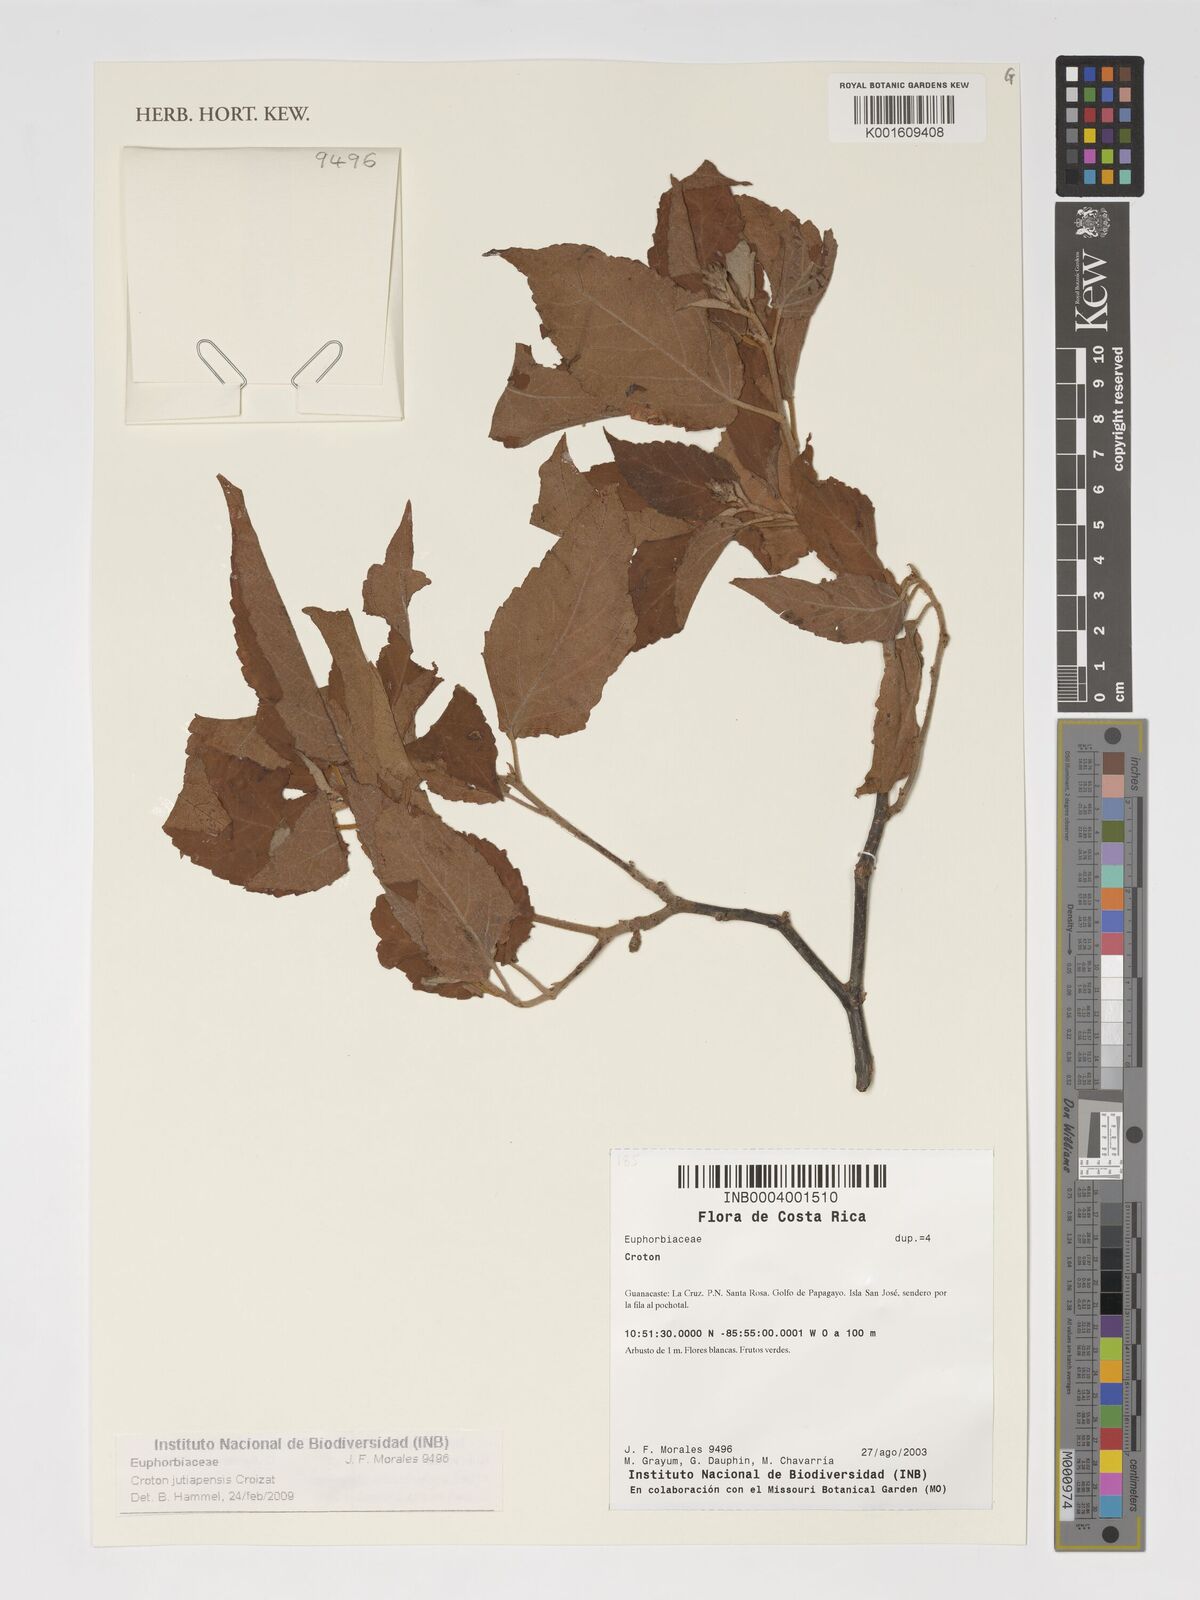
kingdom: Plantae
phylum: Tracheophyta
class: Magnoliopsida
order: Malpighiales
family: Euphorbiaceae
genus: Croton
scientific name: Croton jutiapensis
